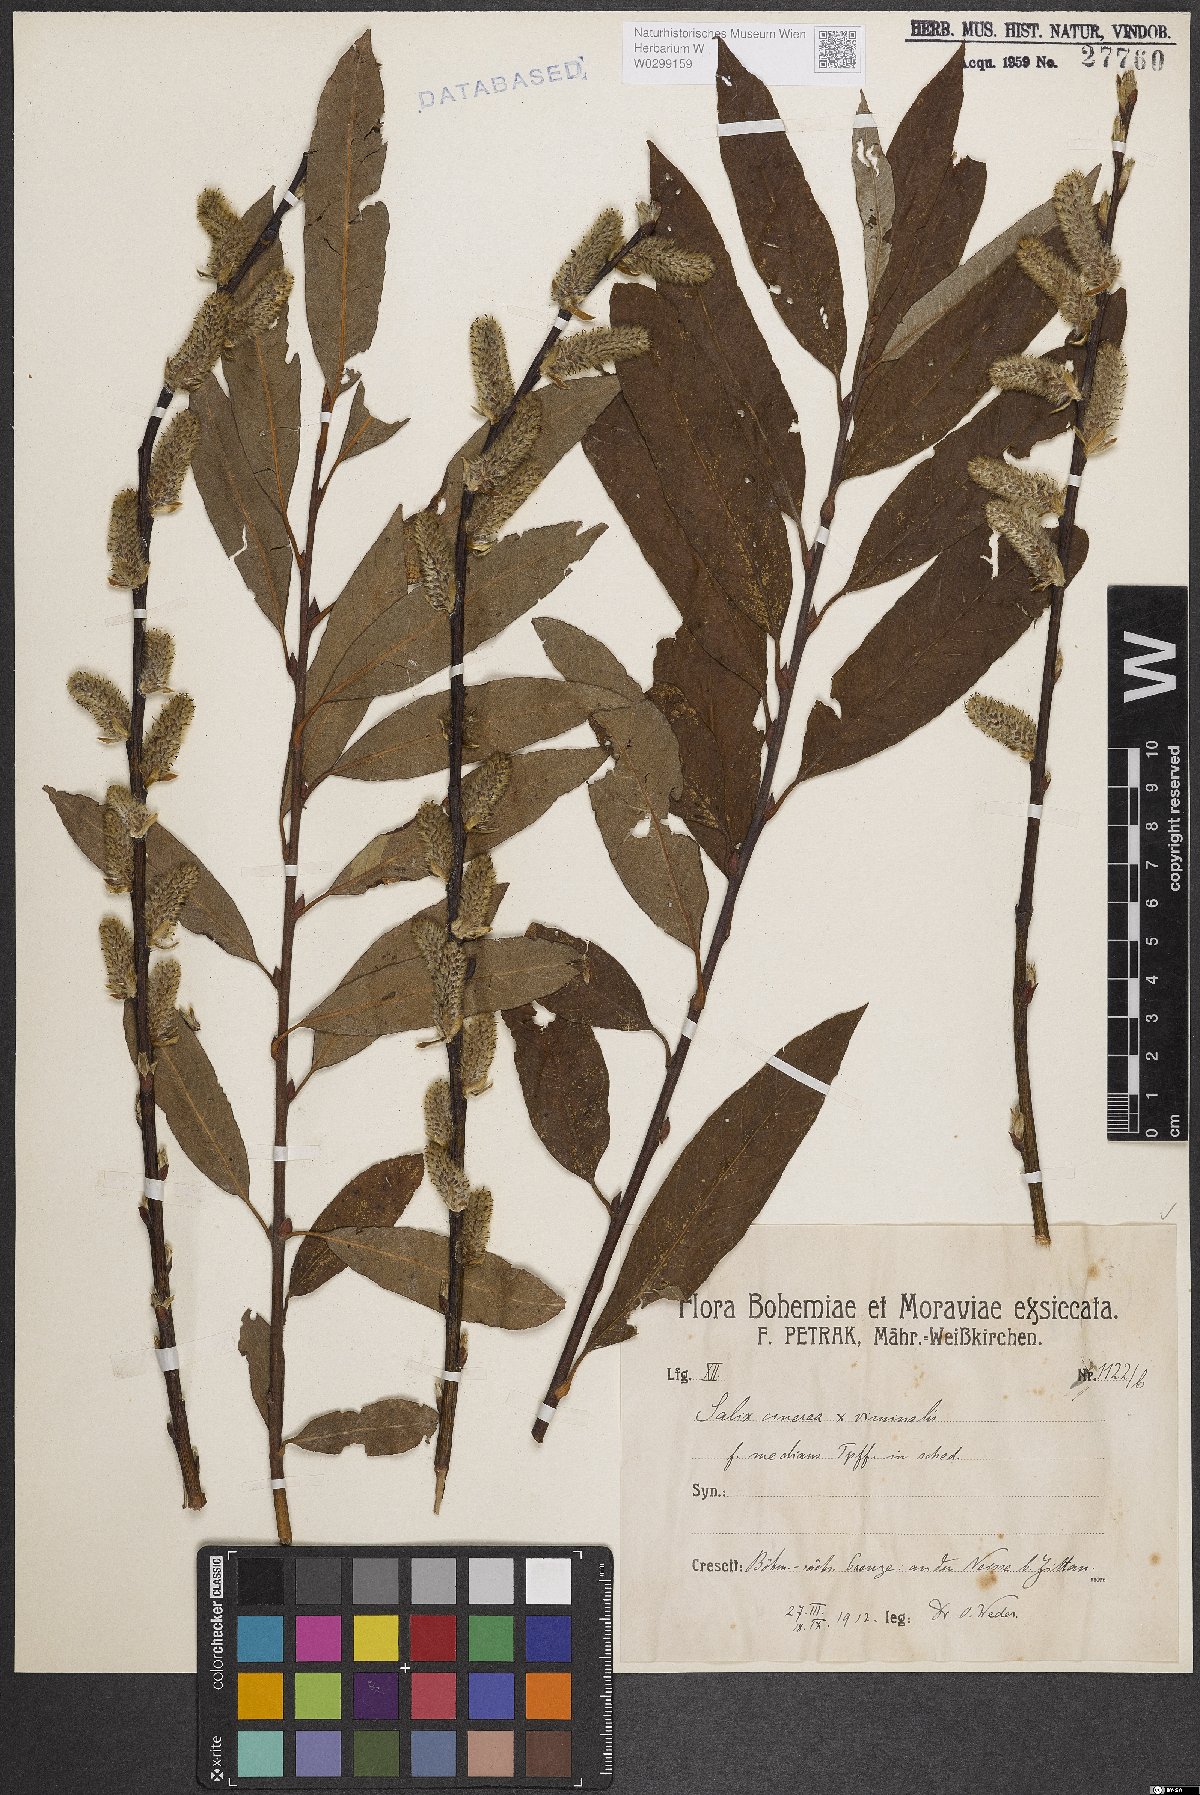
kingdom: Plantae
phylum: Tracheophyta
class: Magnoliopsida
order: Malpighiales
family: Salicaceae
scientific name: Salicaceae
